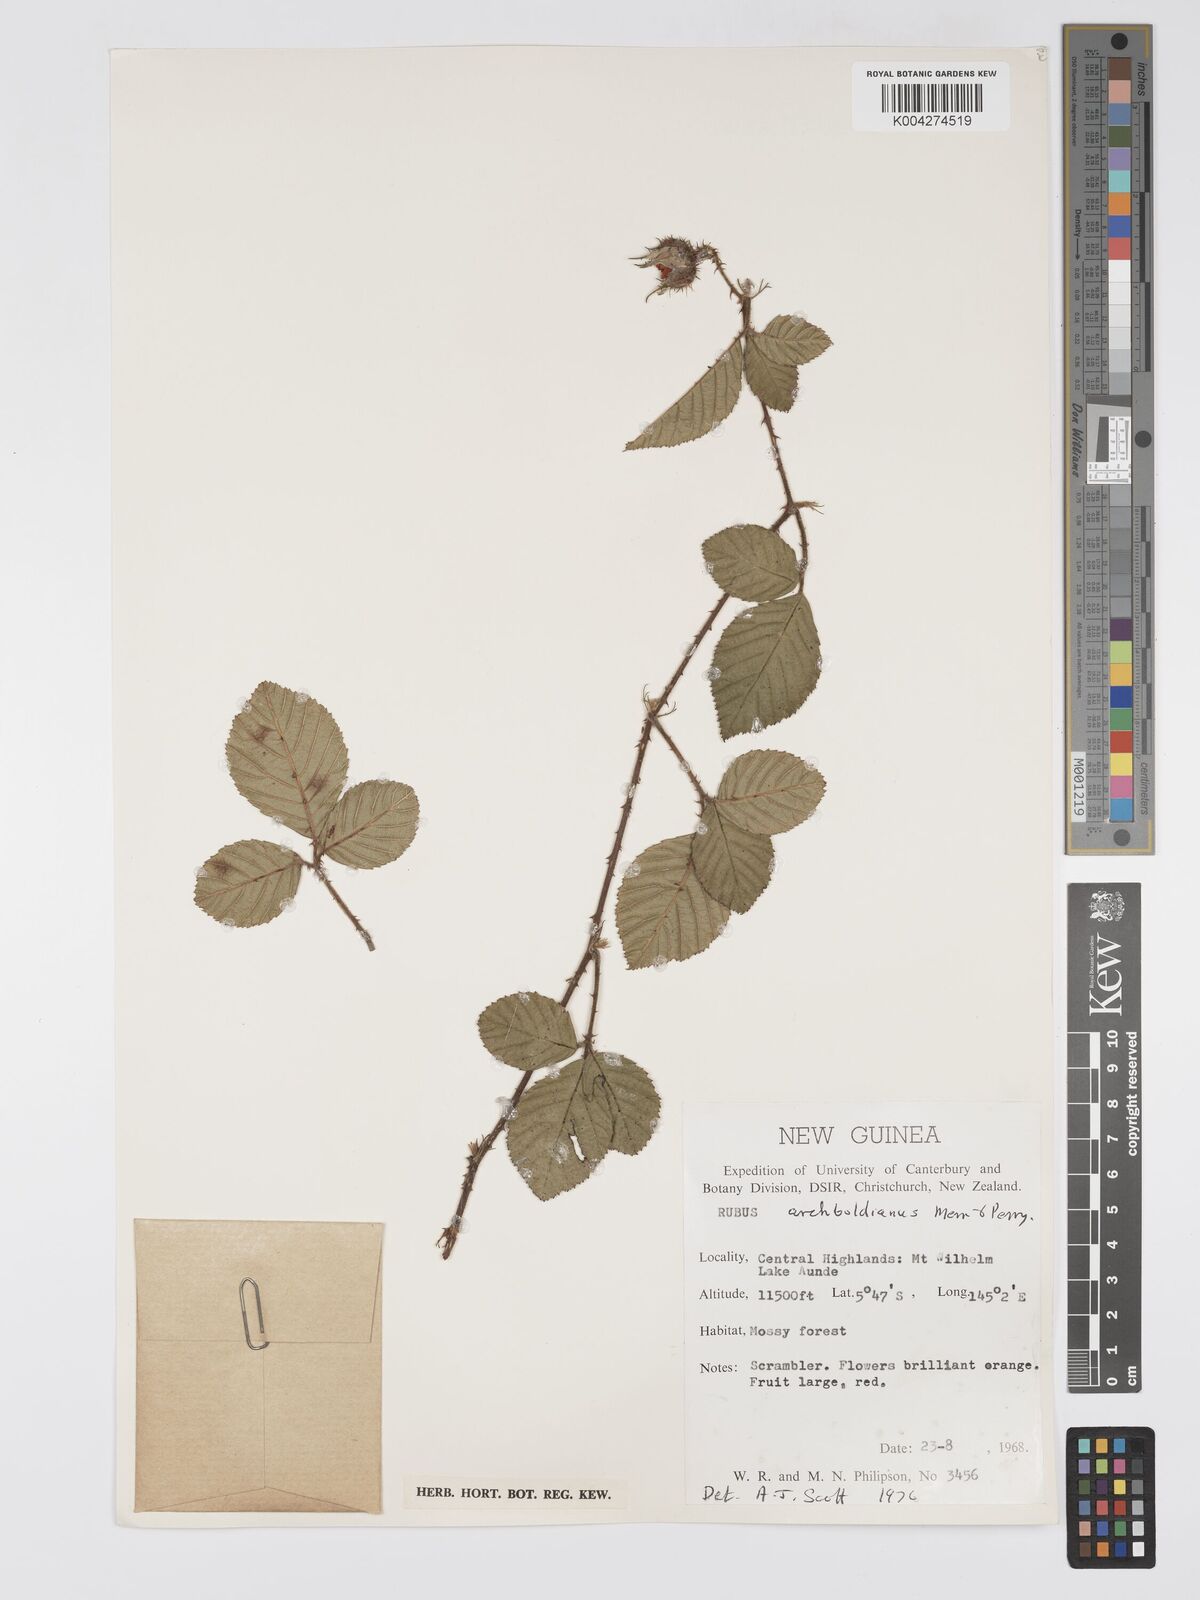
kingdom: Plantae
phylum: Tracheophyta
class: Magnoliopsida
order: Rosales
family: Rosaceae
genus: Rubus
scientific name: Rubus archboldianus
